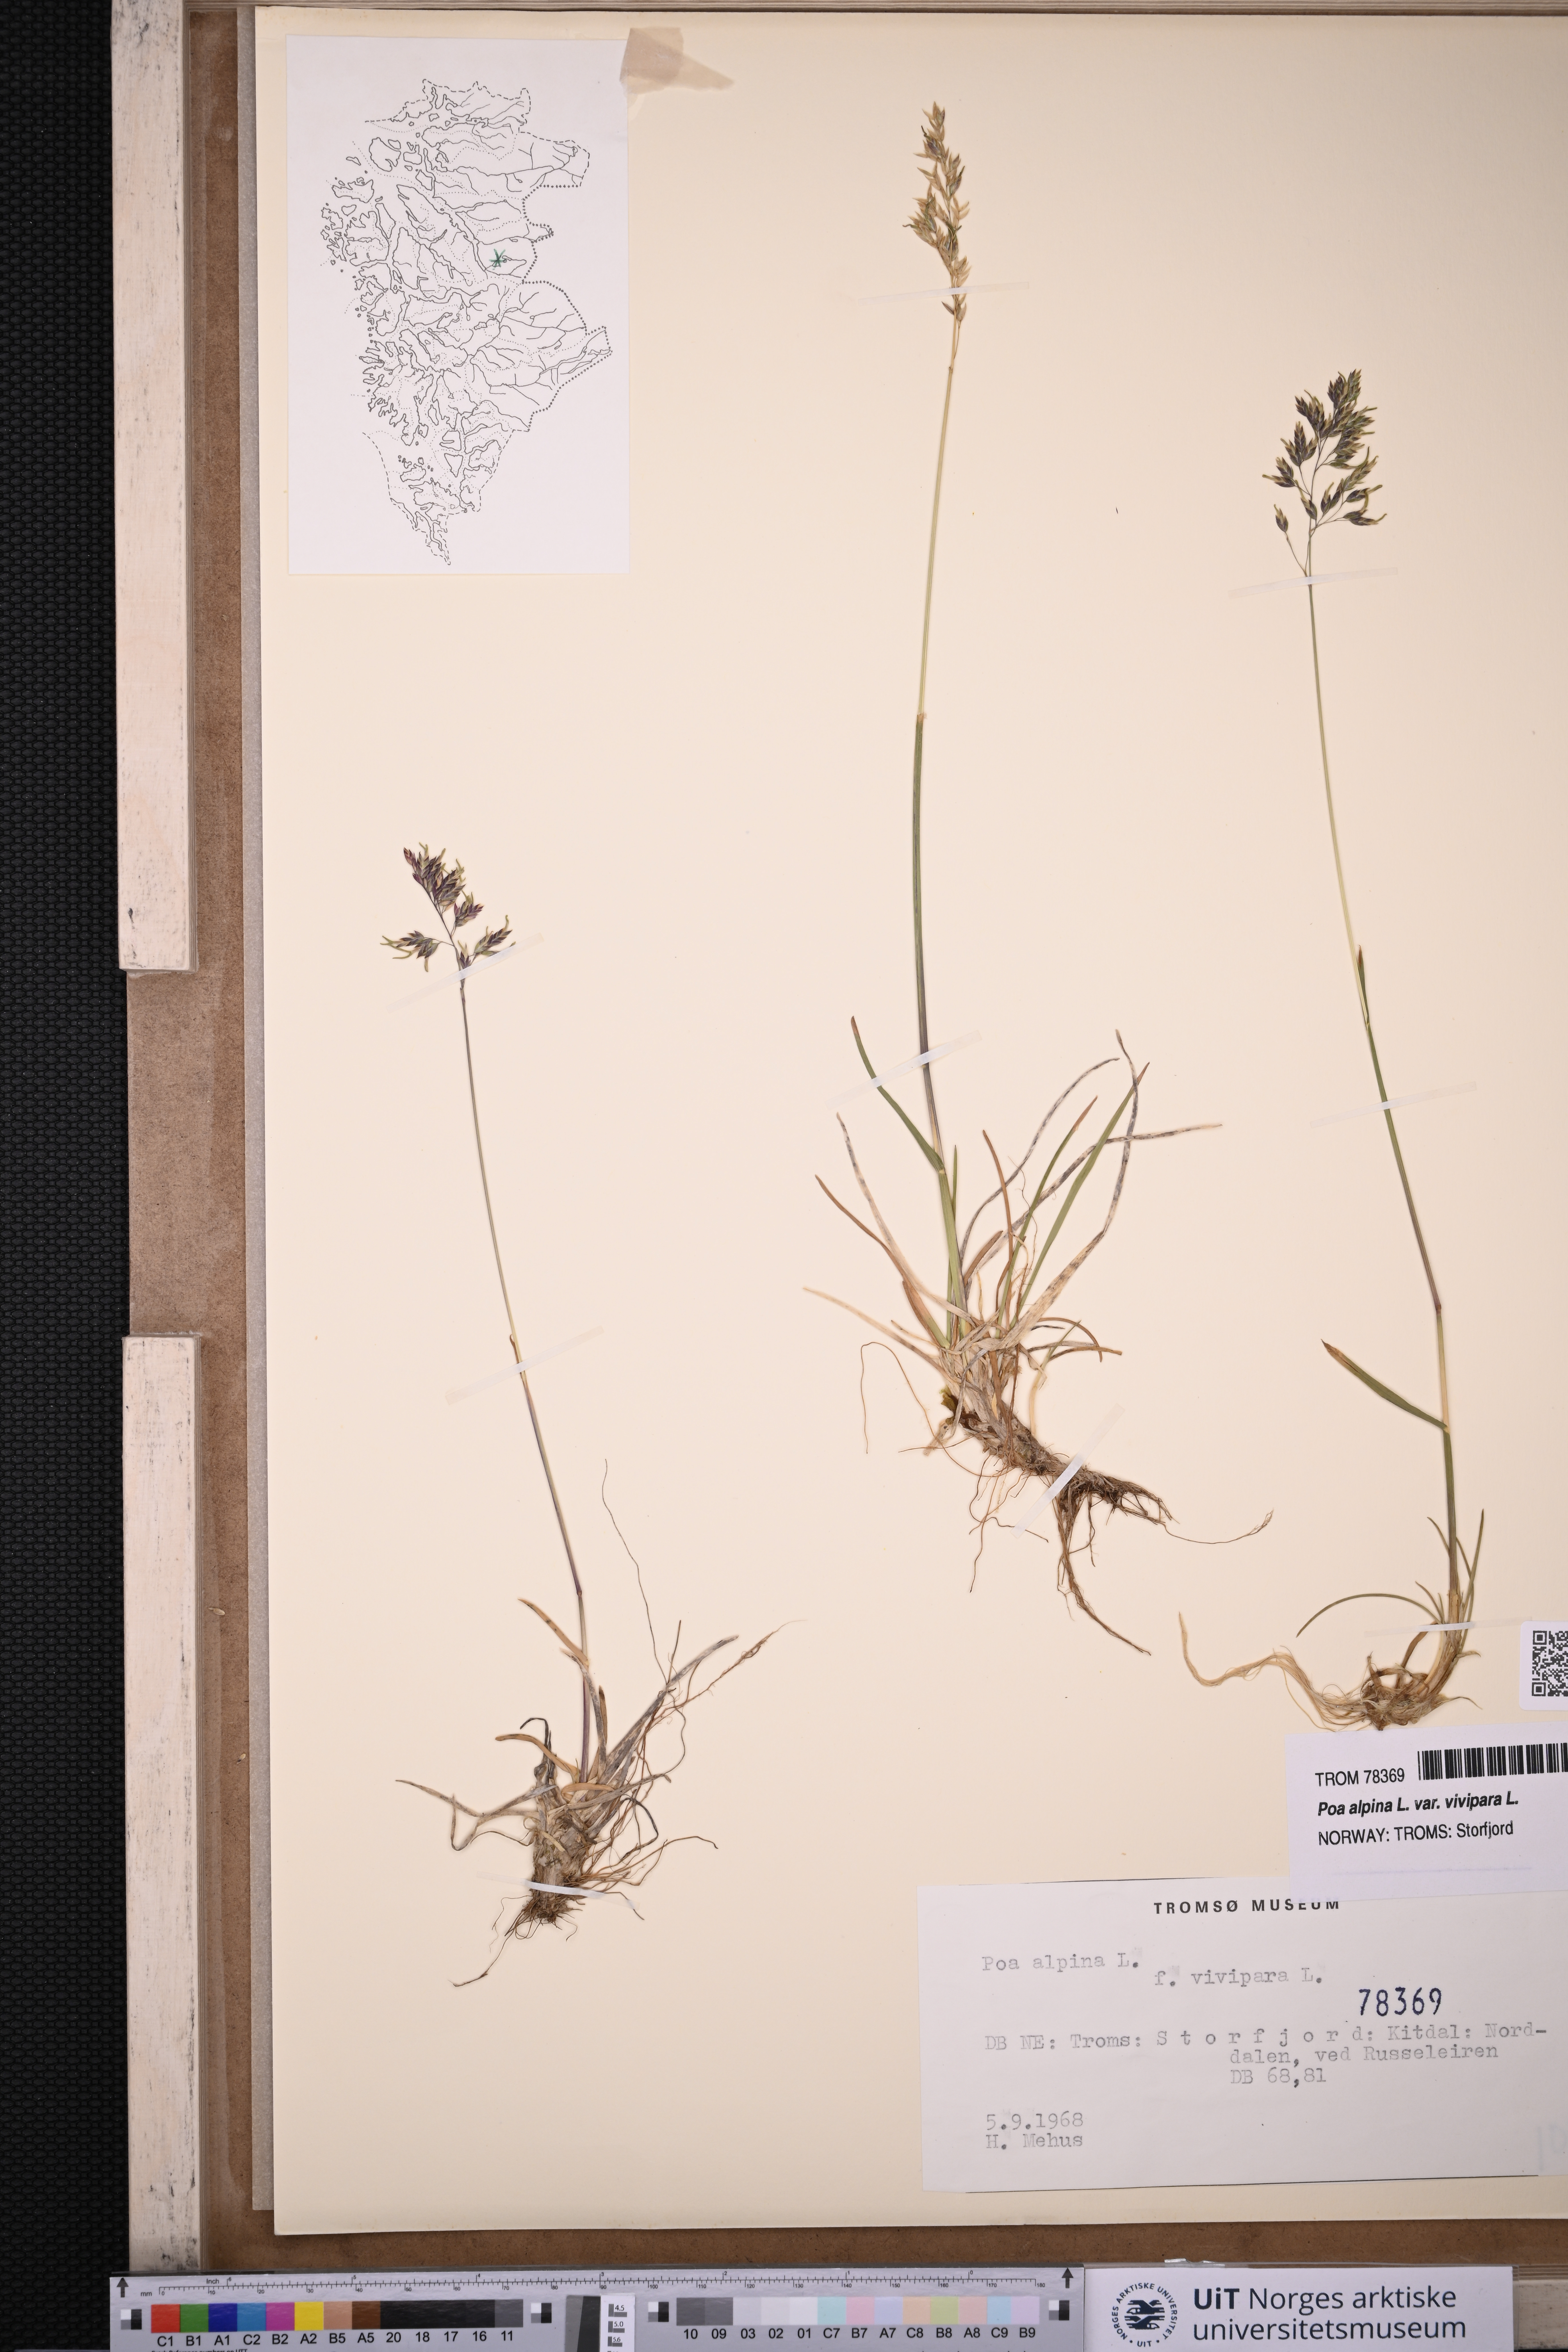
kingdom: Plantae
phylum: Tracheophyta
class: Liliopsida
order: Poales
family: Poaceae
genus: Poa
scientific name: Poa alpina
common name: Alpine bluegrass
